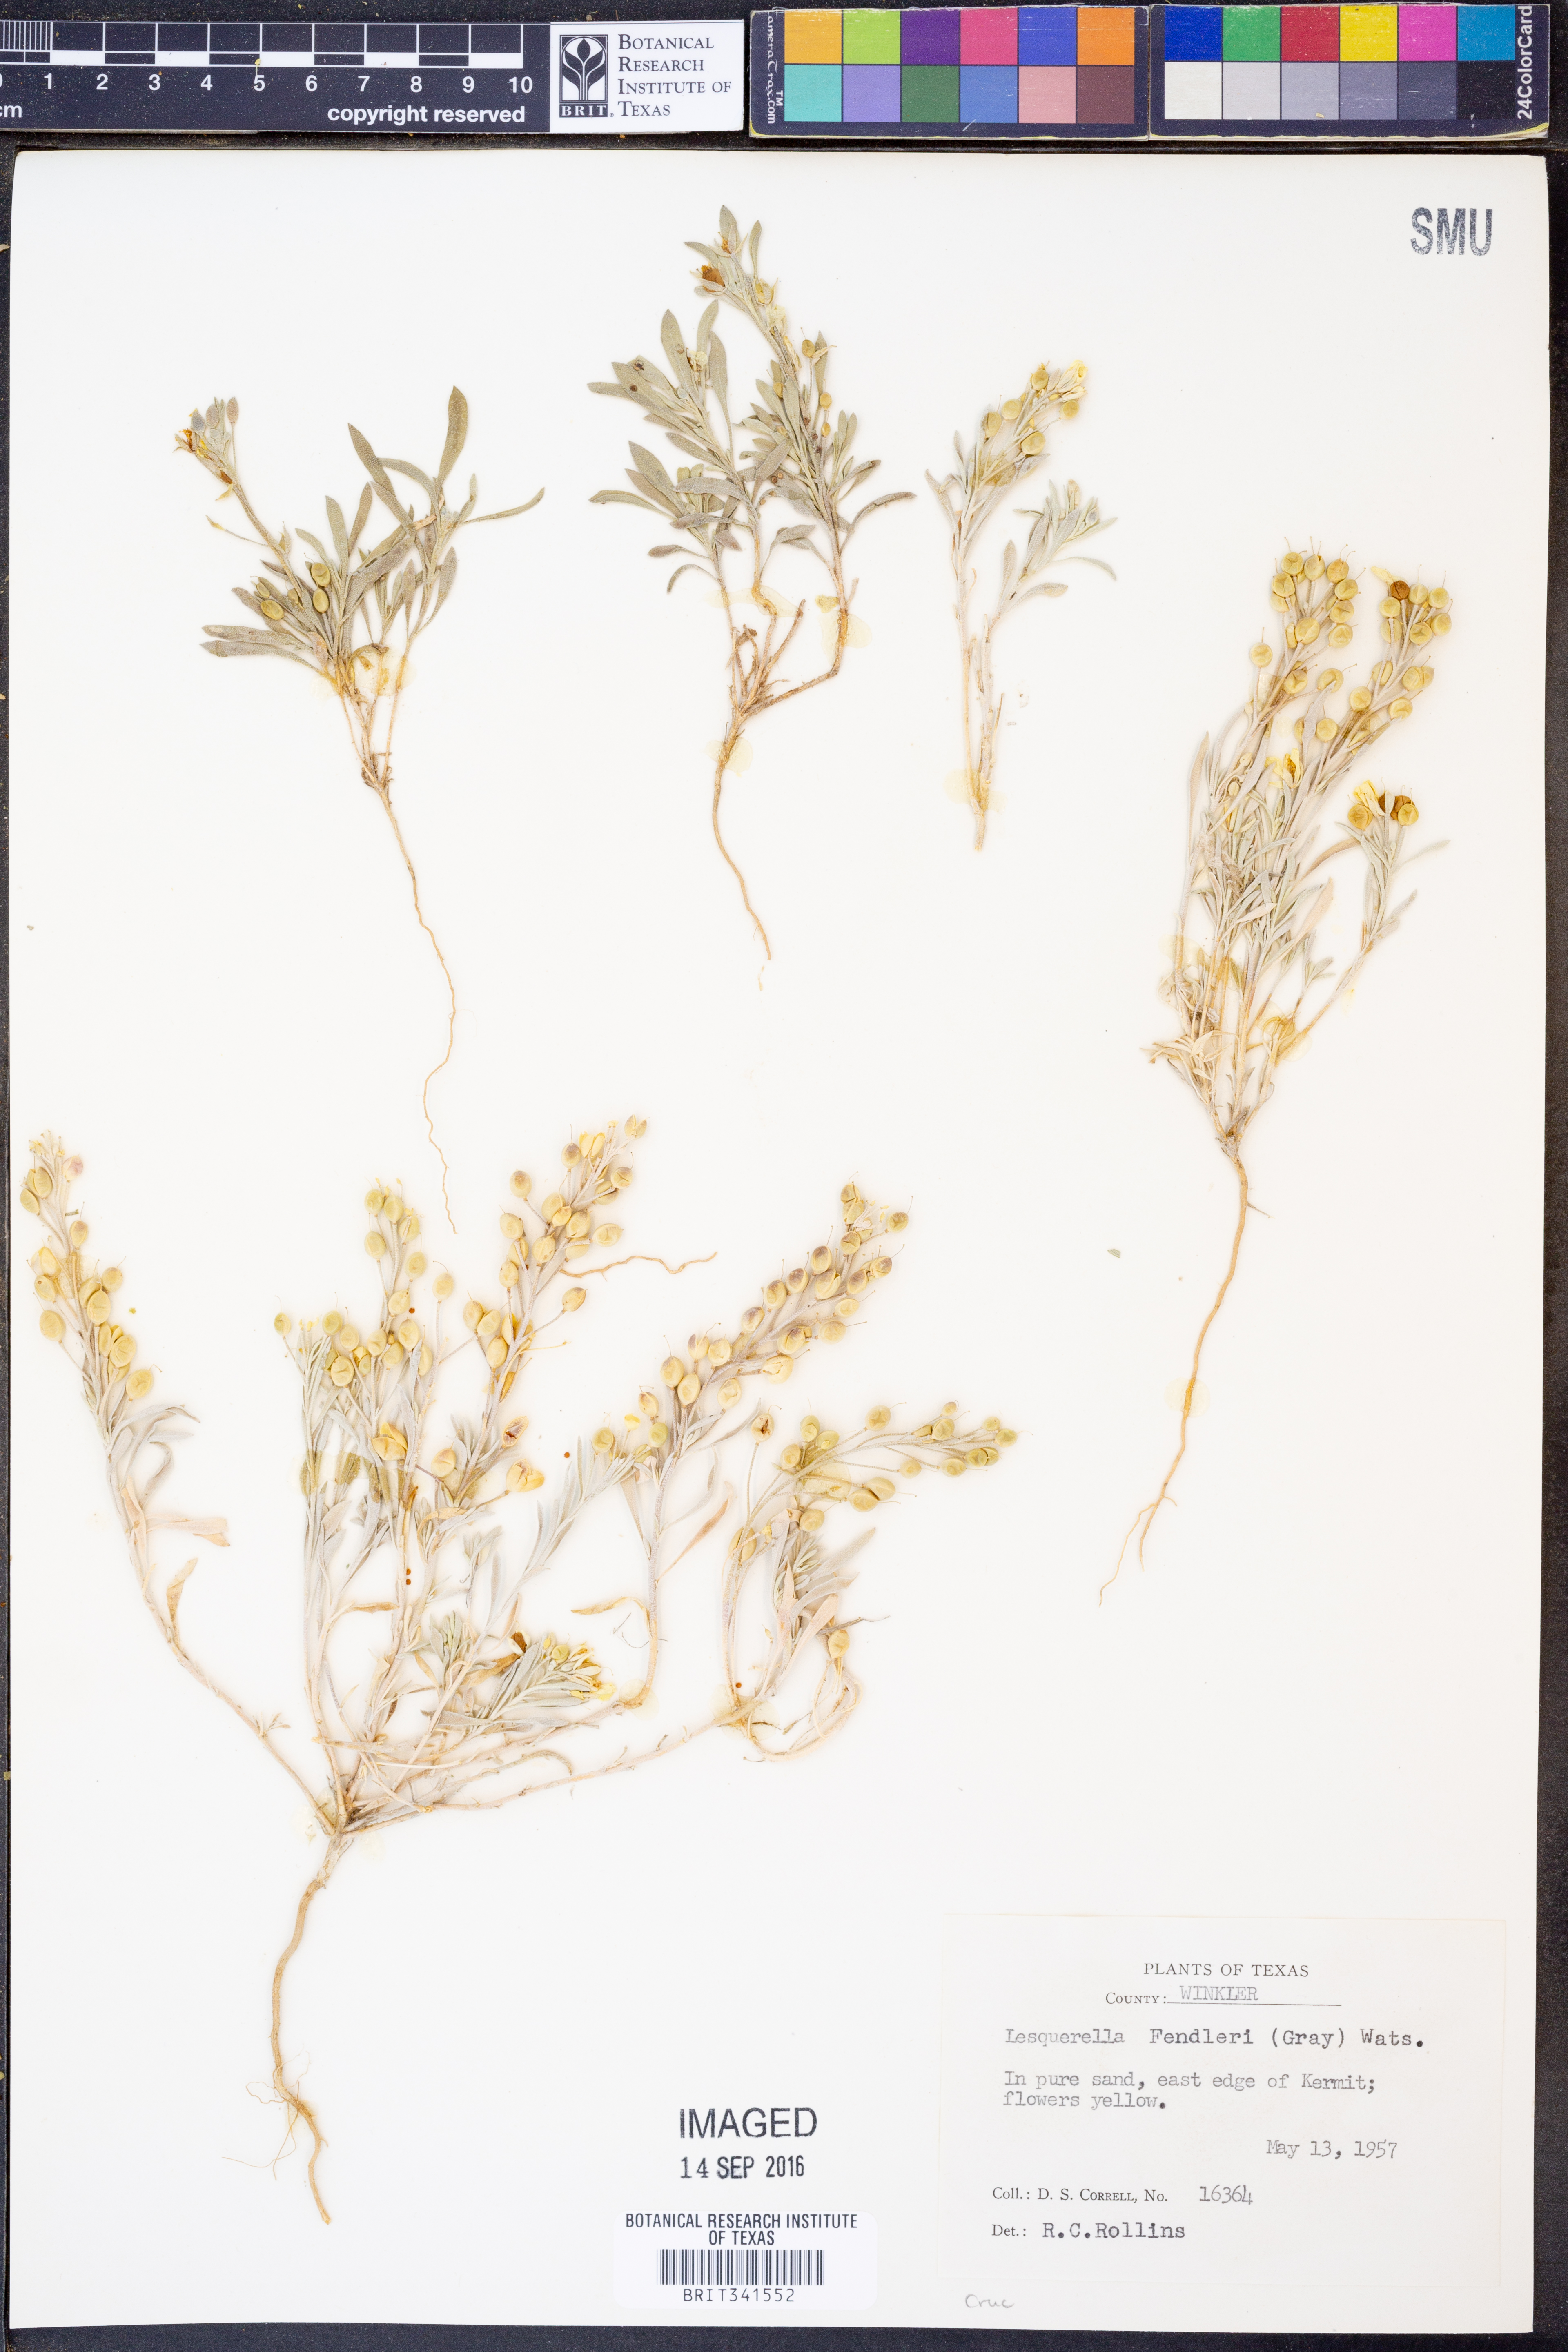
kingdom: Plantae
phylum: Tracheophyta
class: Magnoliopsida
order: Brassicales
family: Brassicaceae
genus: Physaria
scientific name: Physaria fendleri
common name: Fendler's bladderpod
